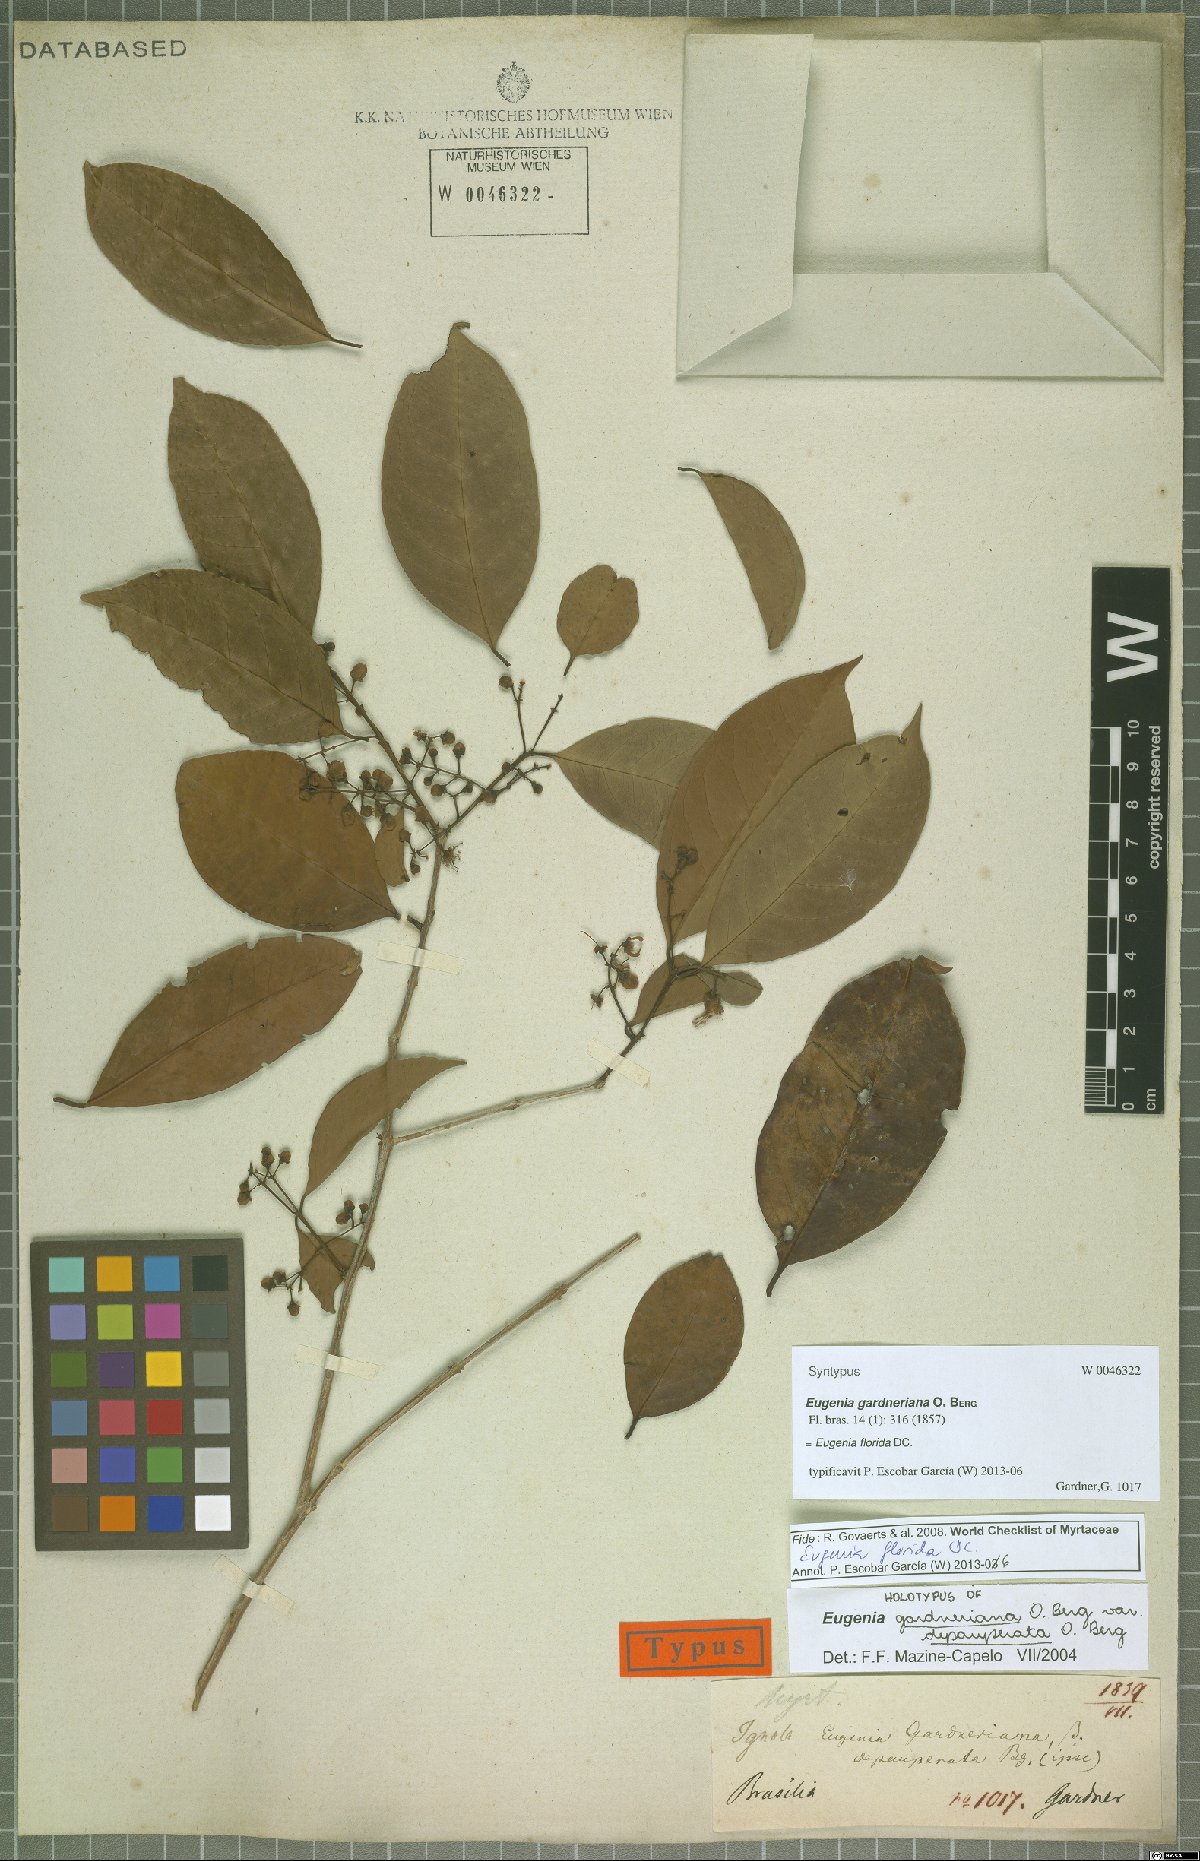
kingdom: Plantae
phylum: Tracheophyta
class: Magnoliopsida
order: Myrtales
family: Myrtaceae
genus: Eugenia
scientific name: Eugenia florida
